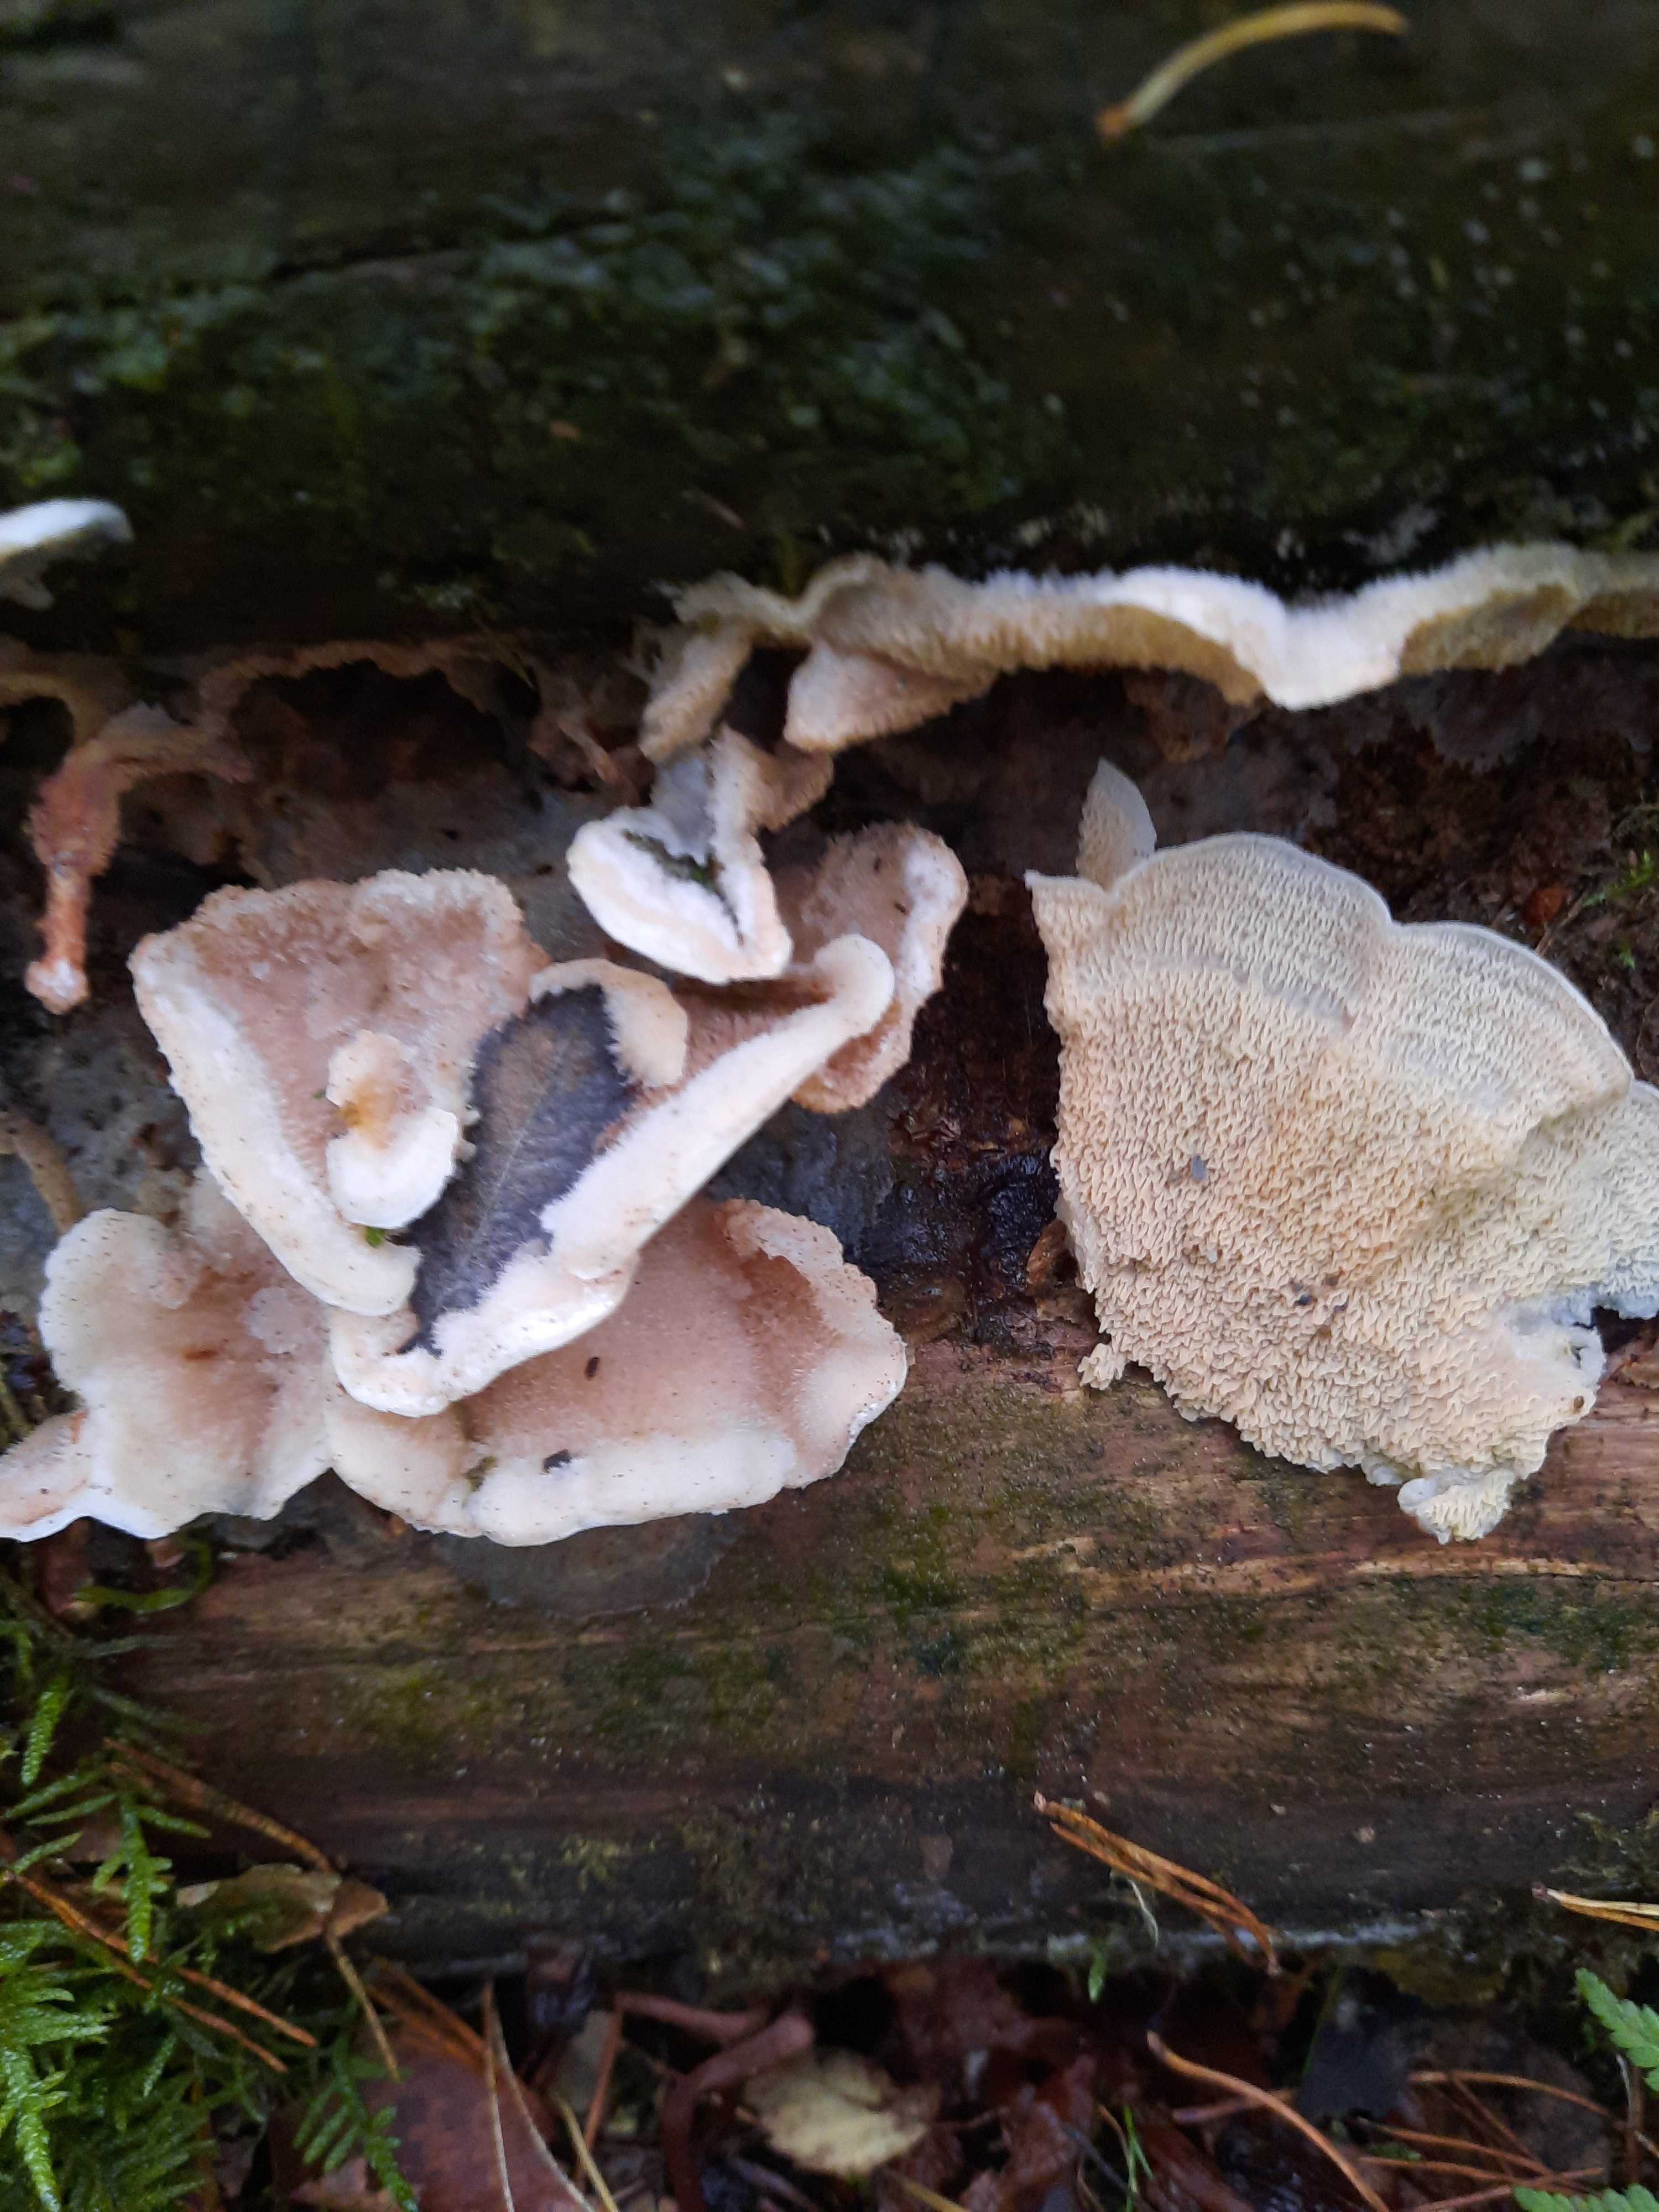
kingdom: Fungi
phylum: Basidiomycota
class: Agaricomycetes
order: Polyporales
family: Meruliaceae
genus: Phlebia
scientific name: Phlebia tremellosa
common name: bævrende åresvamp
